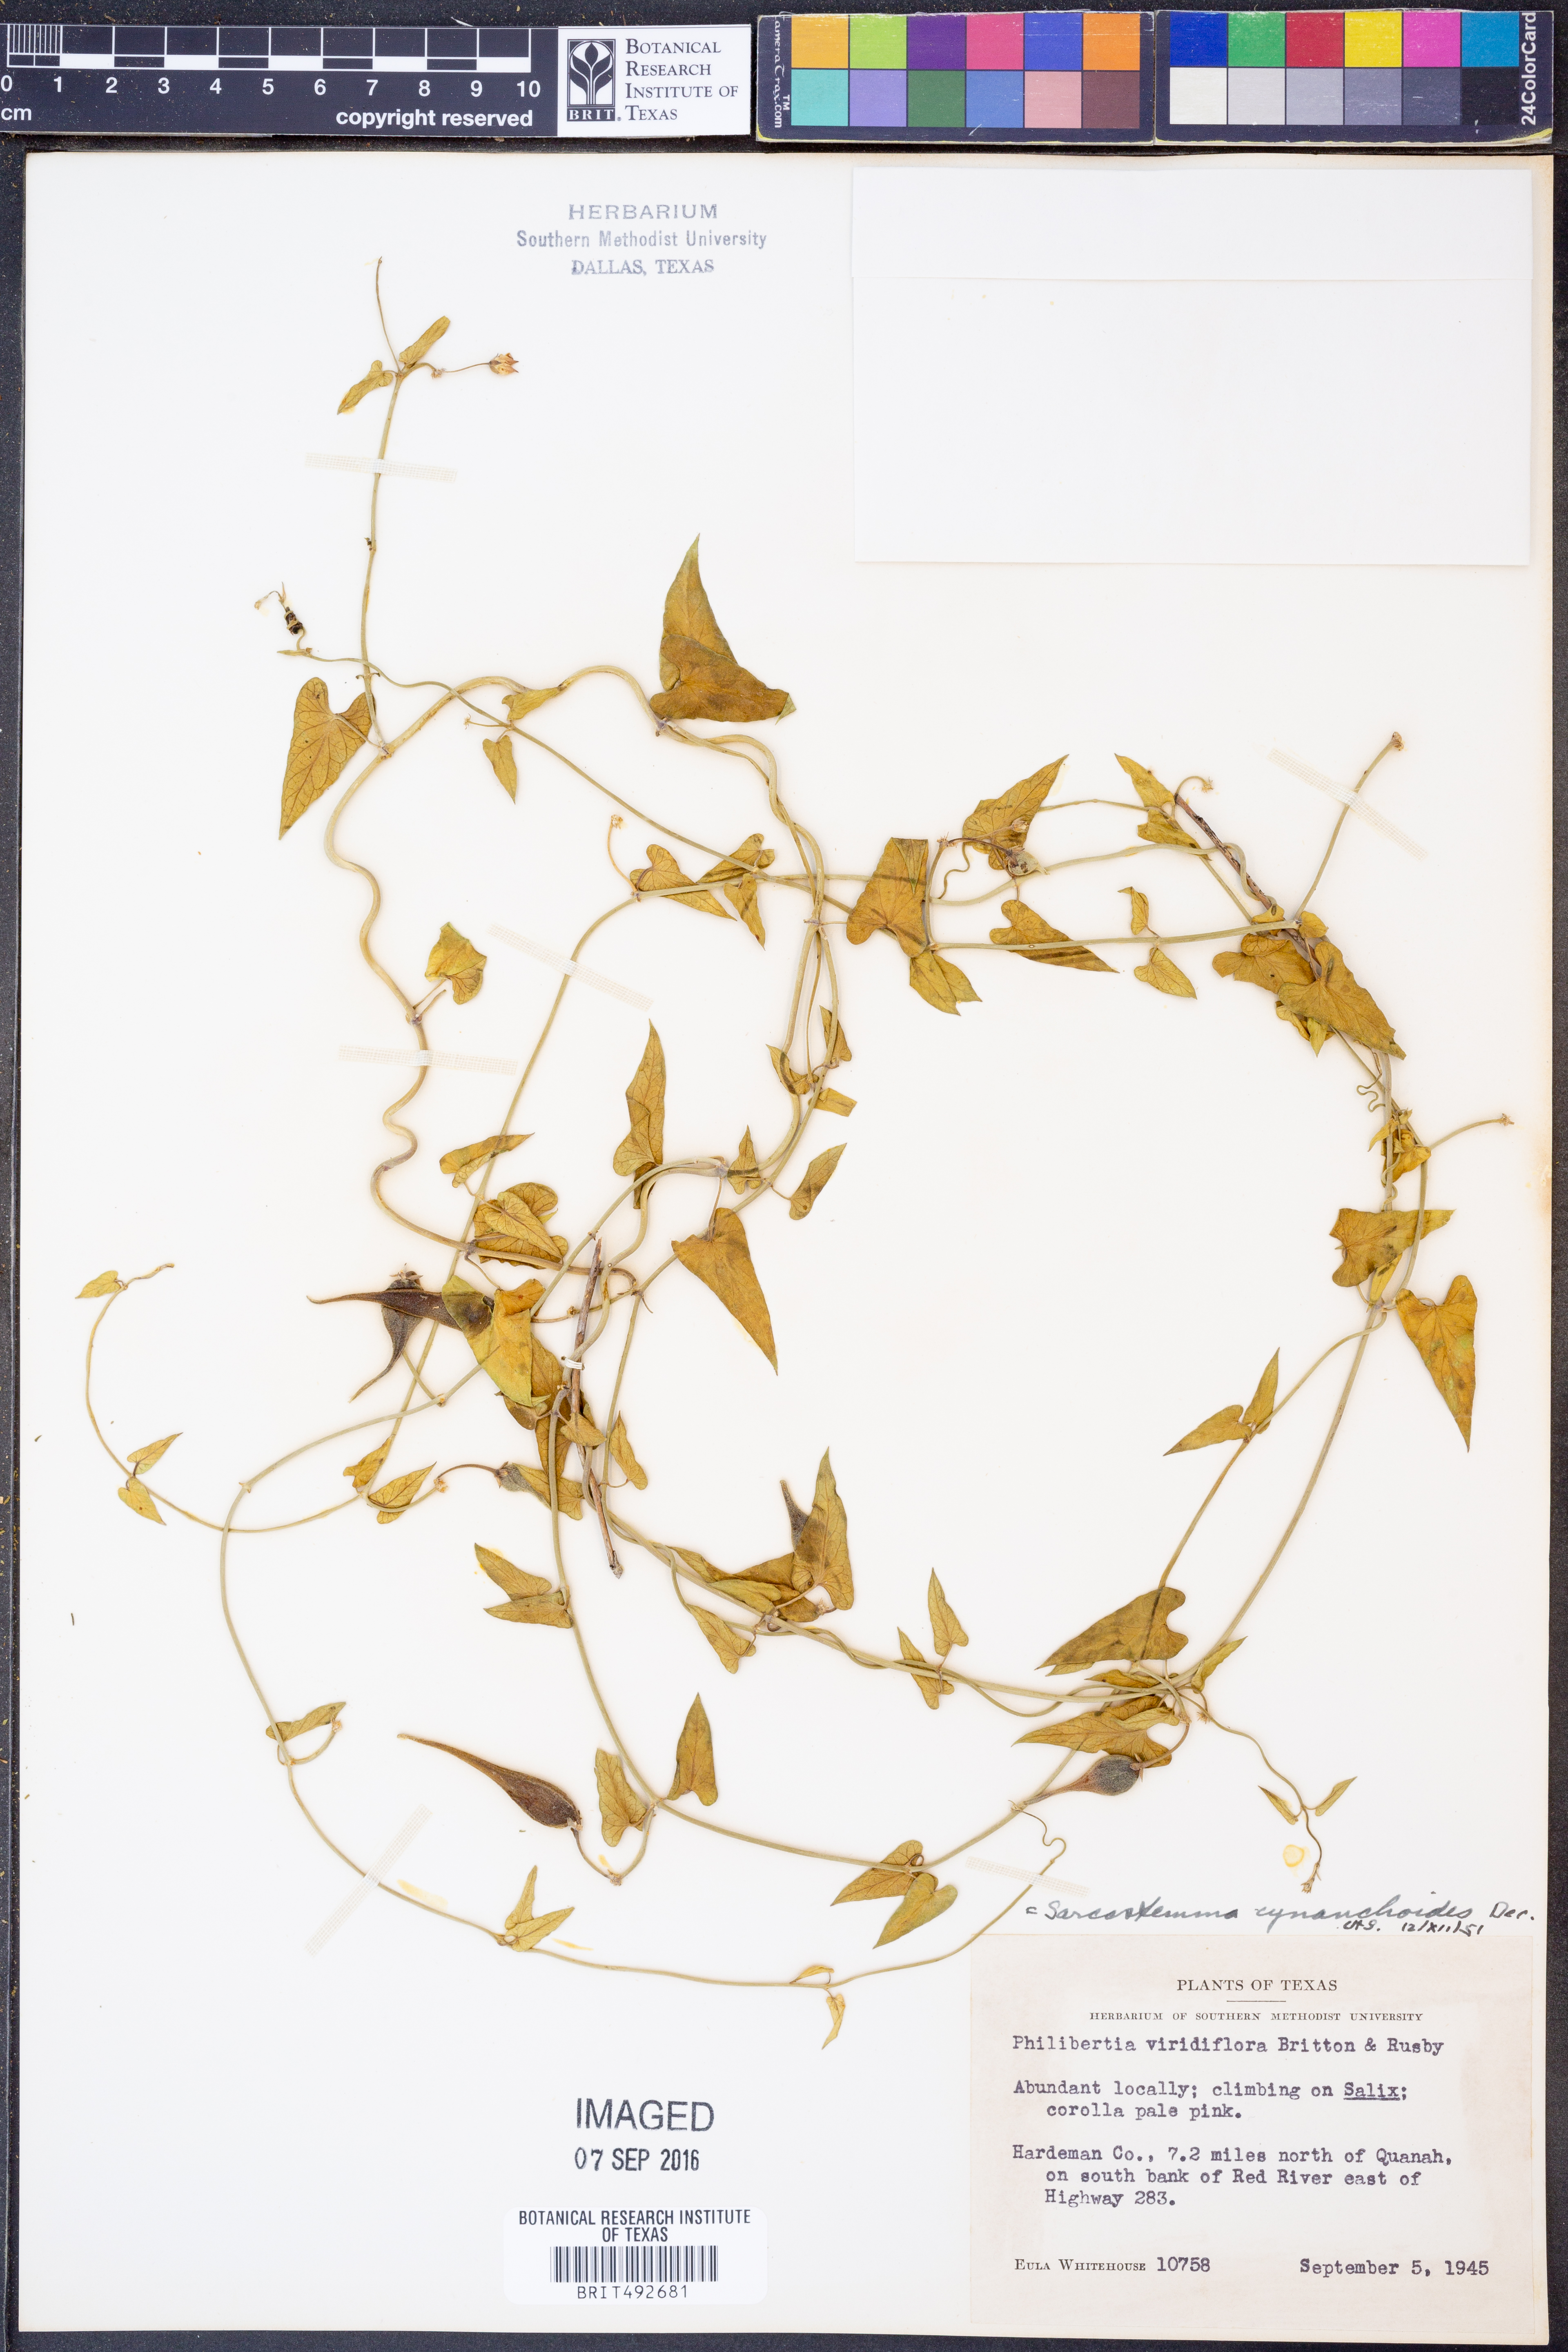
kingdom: Plantae
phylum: Tracheophyta
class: Magnoliopsida
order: Gentianales
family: Apocynaceae
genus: Funastrum
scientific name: Funastrum cynanchoides
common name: Climbing-milkweed
